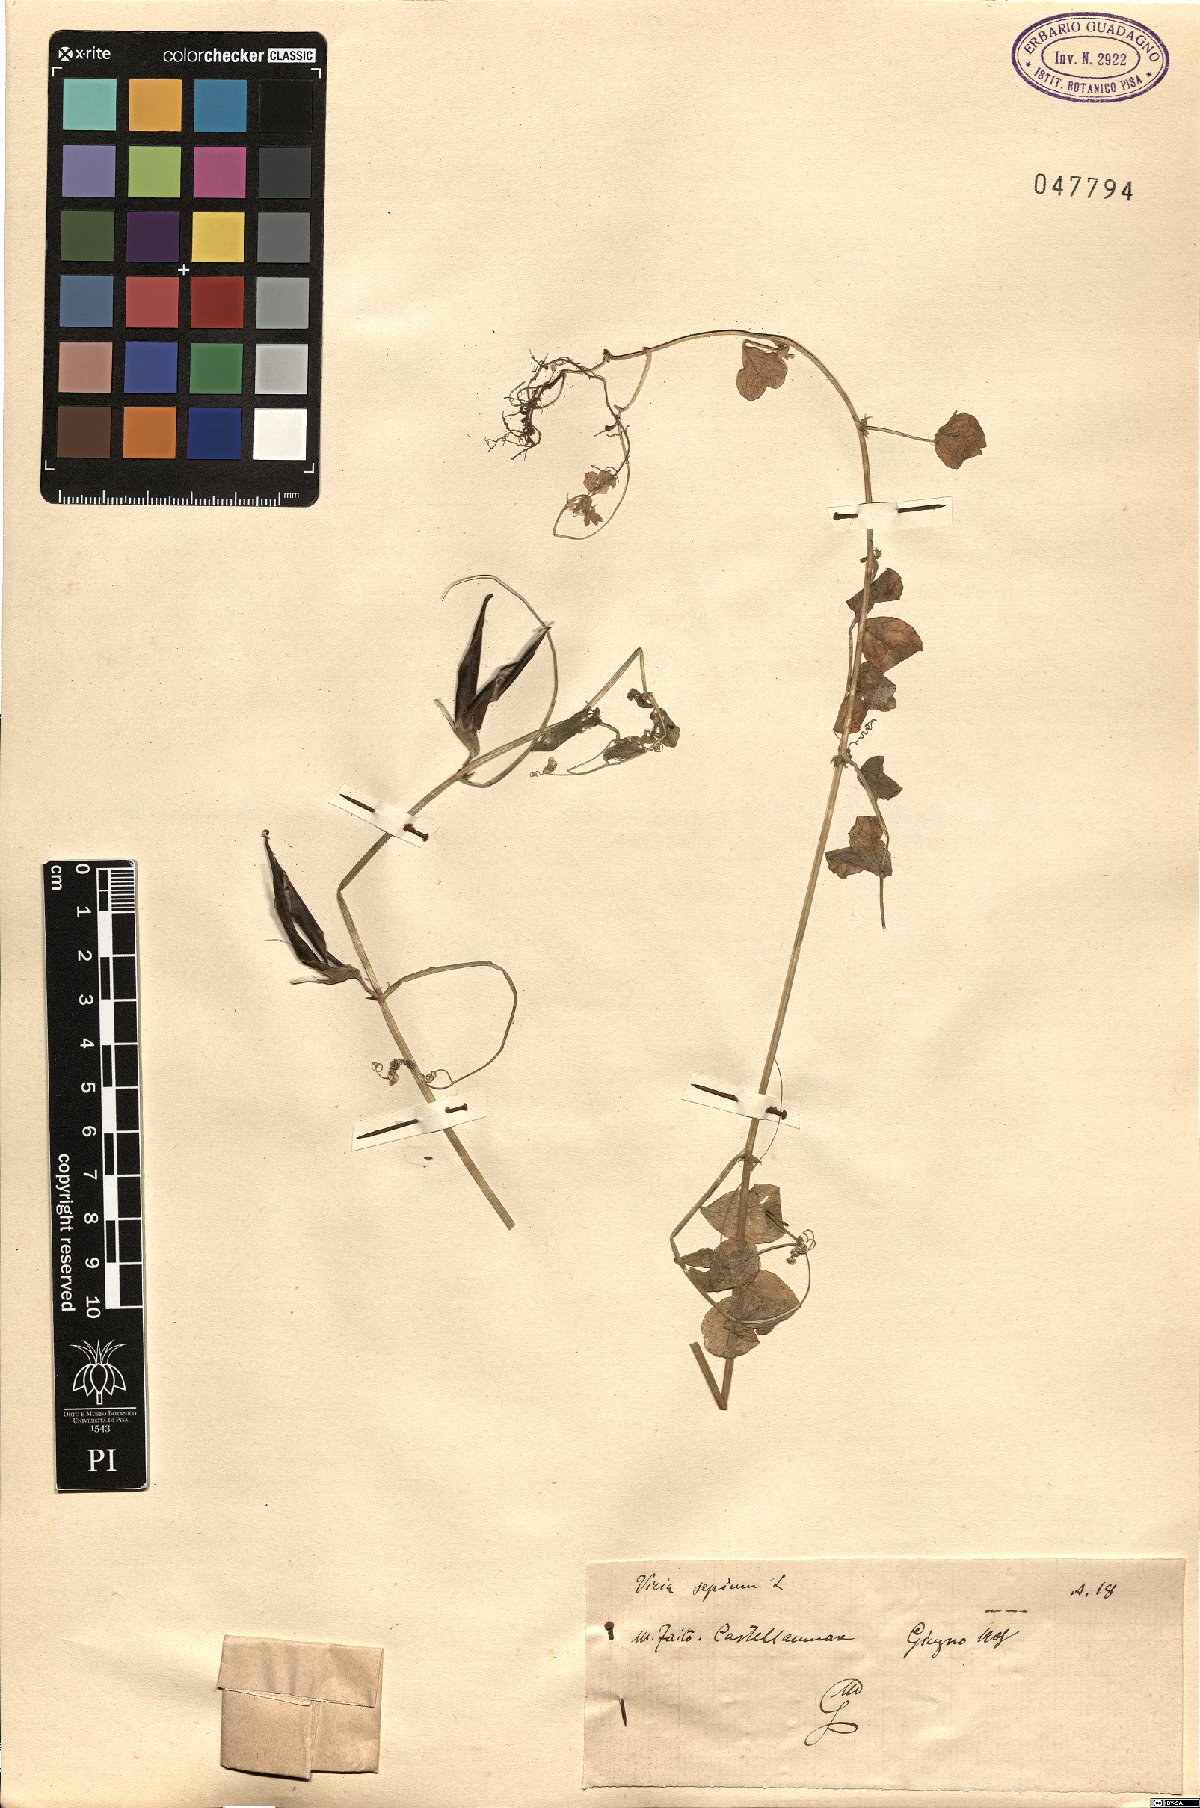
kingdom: Plantae
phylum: Tracheophyta
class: Magnoliopsida
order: Fabales
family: Fabaceae
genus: Vicia
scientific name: Vicia sepium
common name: Bush vetch
